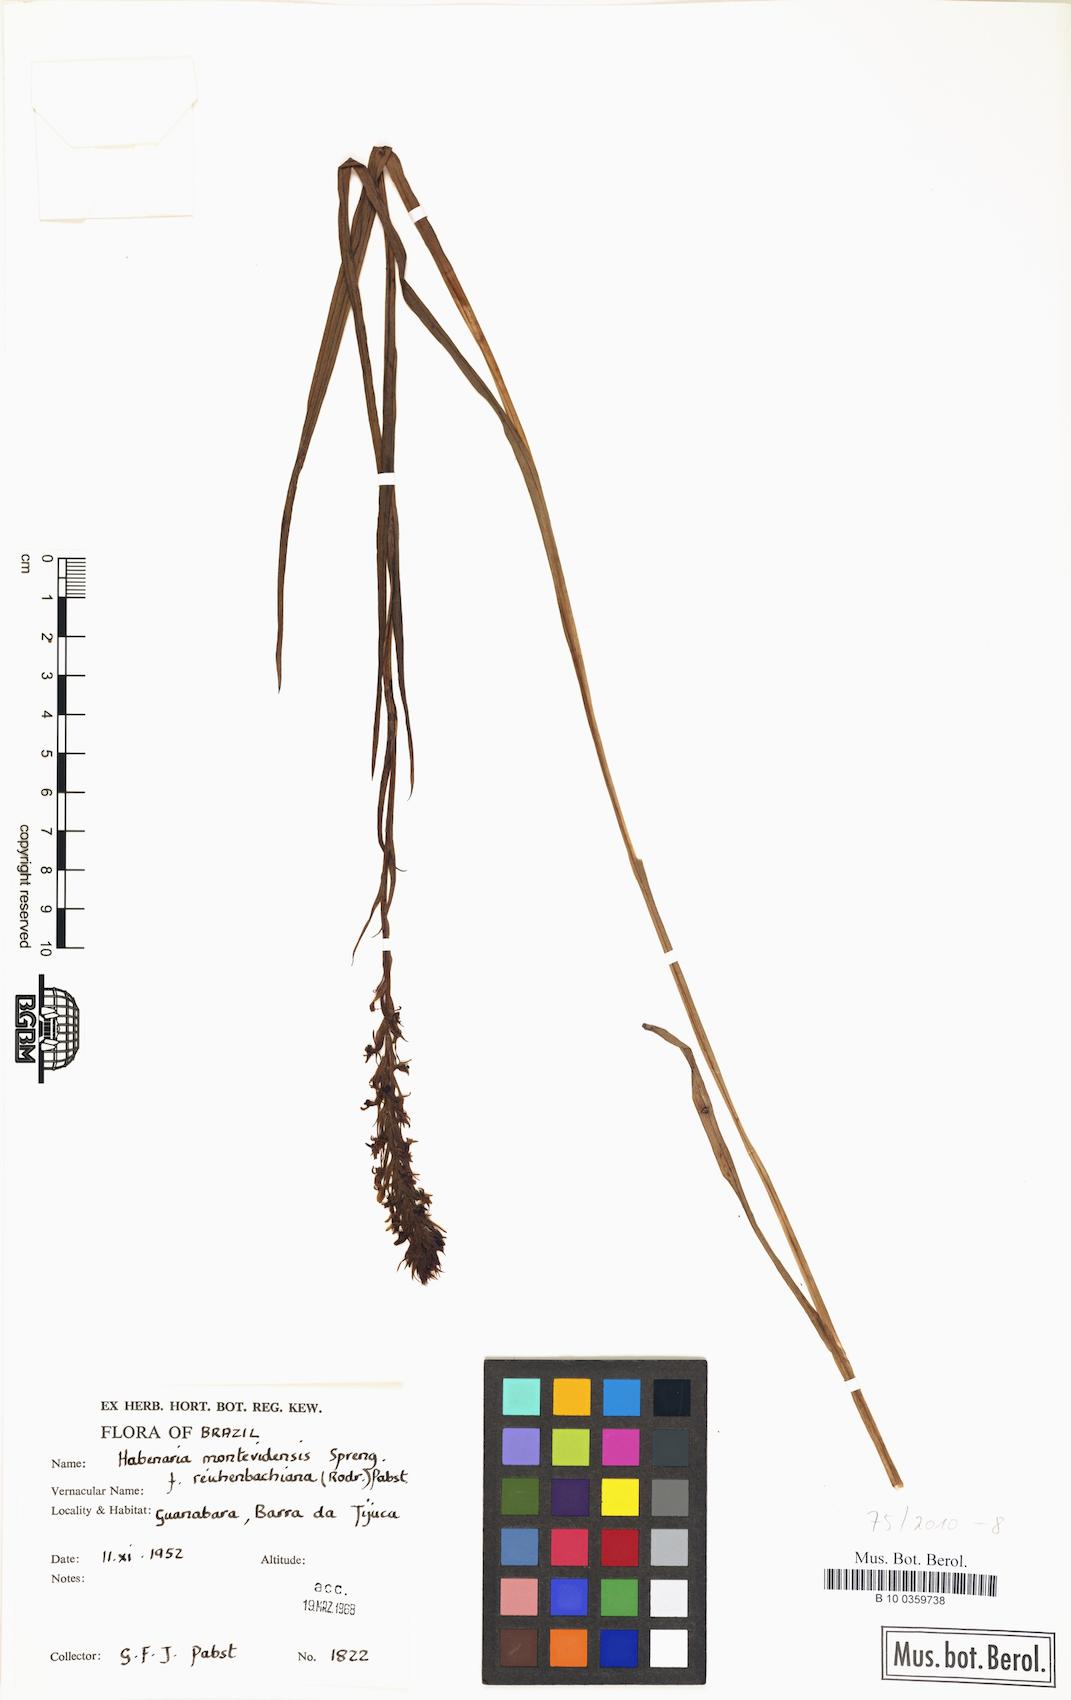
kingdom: Plantae
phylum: Tracheophyta
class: Liliopsida
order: Asparagales
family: Orchidaceae
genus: Habenaria
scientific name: Habenaria parviflora
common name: Small flowered habenaria
